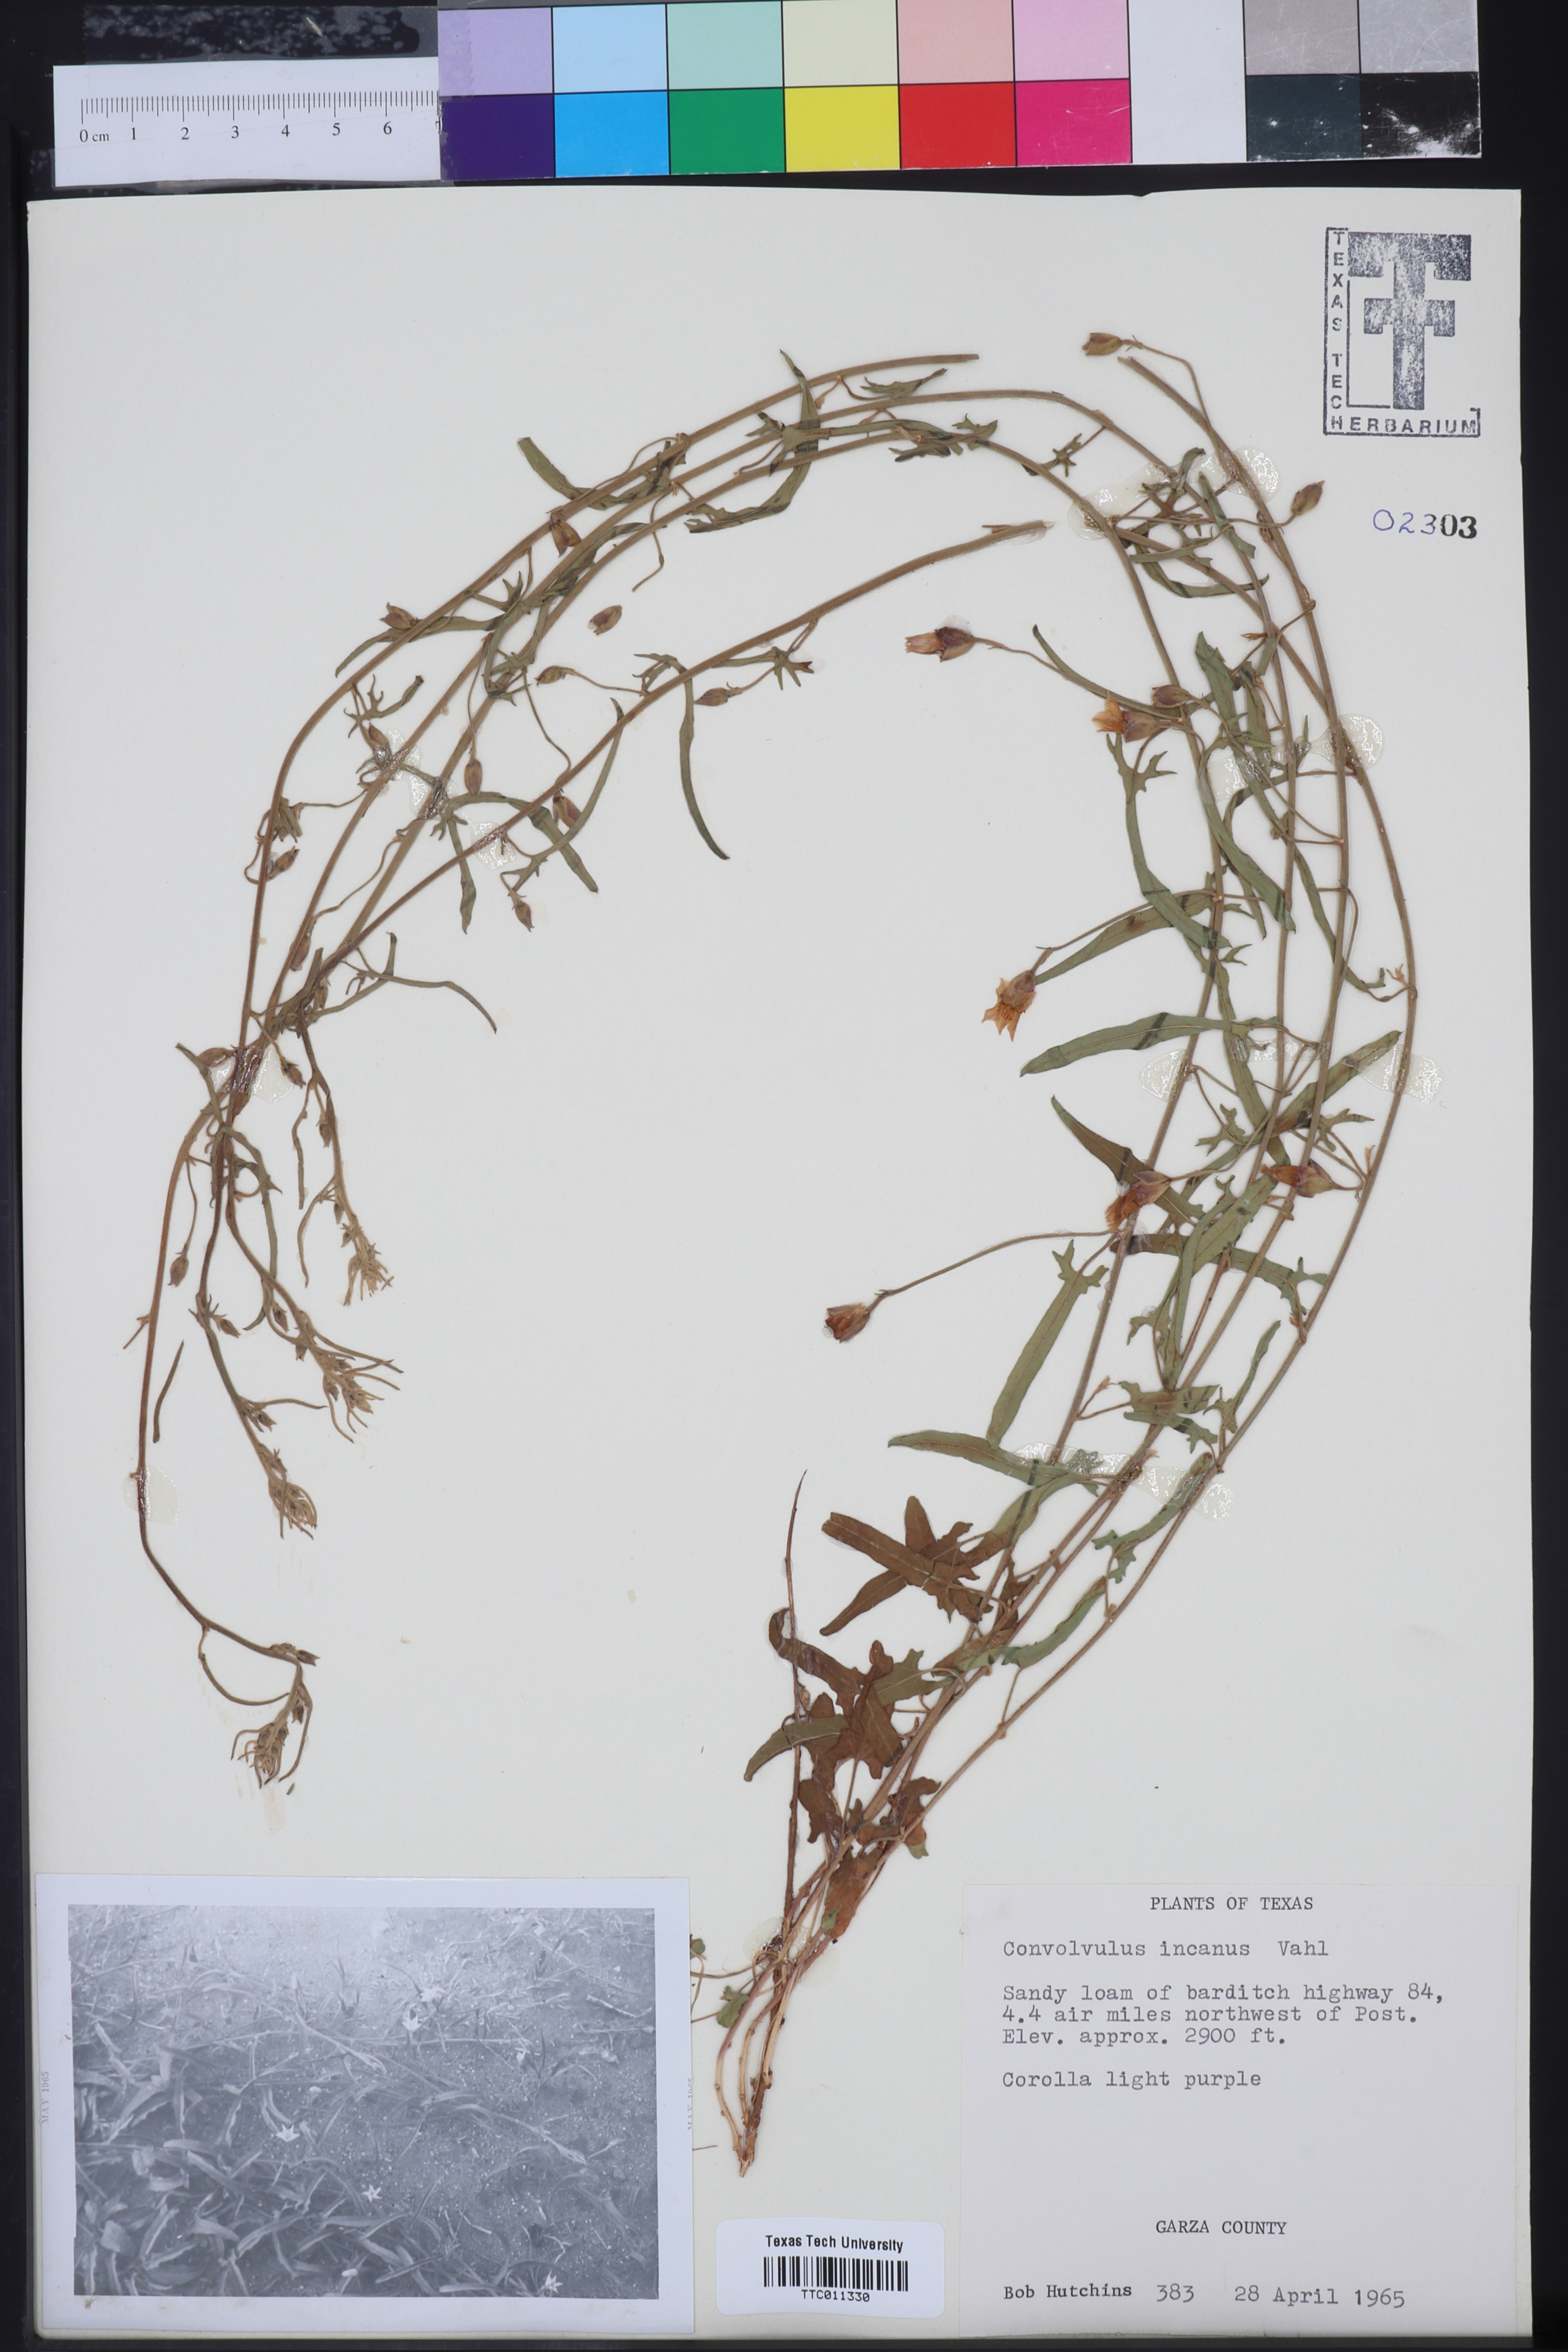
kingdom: Plantae
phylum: Tracheophyta
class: Magnoliopsida
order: Solanales
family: Convolvulaceae
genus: Convolvulus
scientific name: Convolvulus hermanniae
